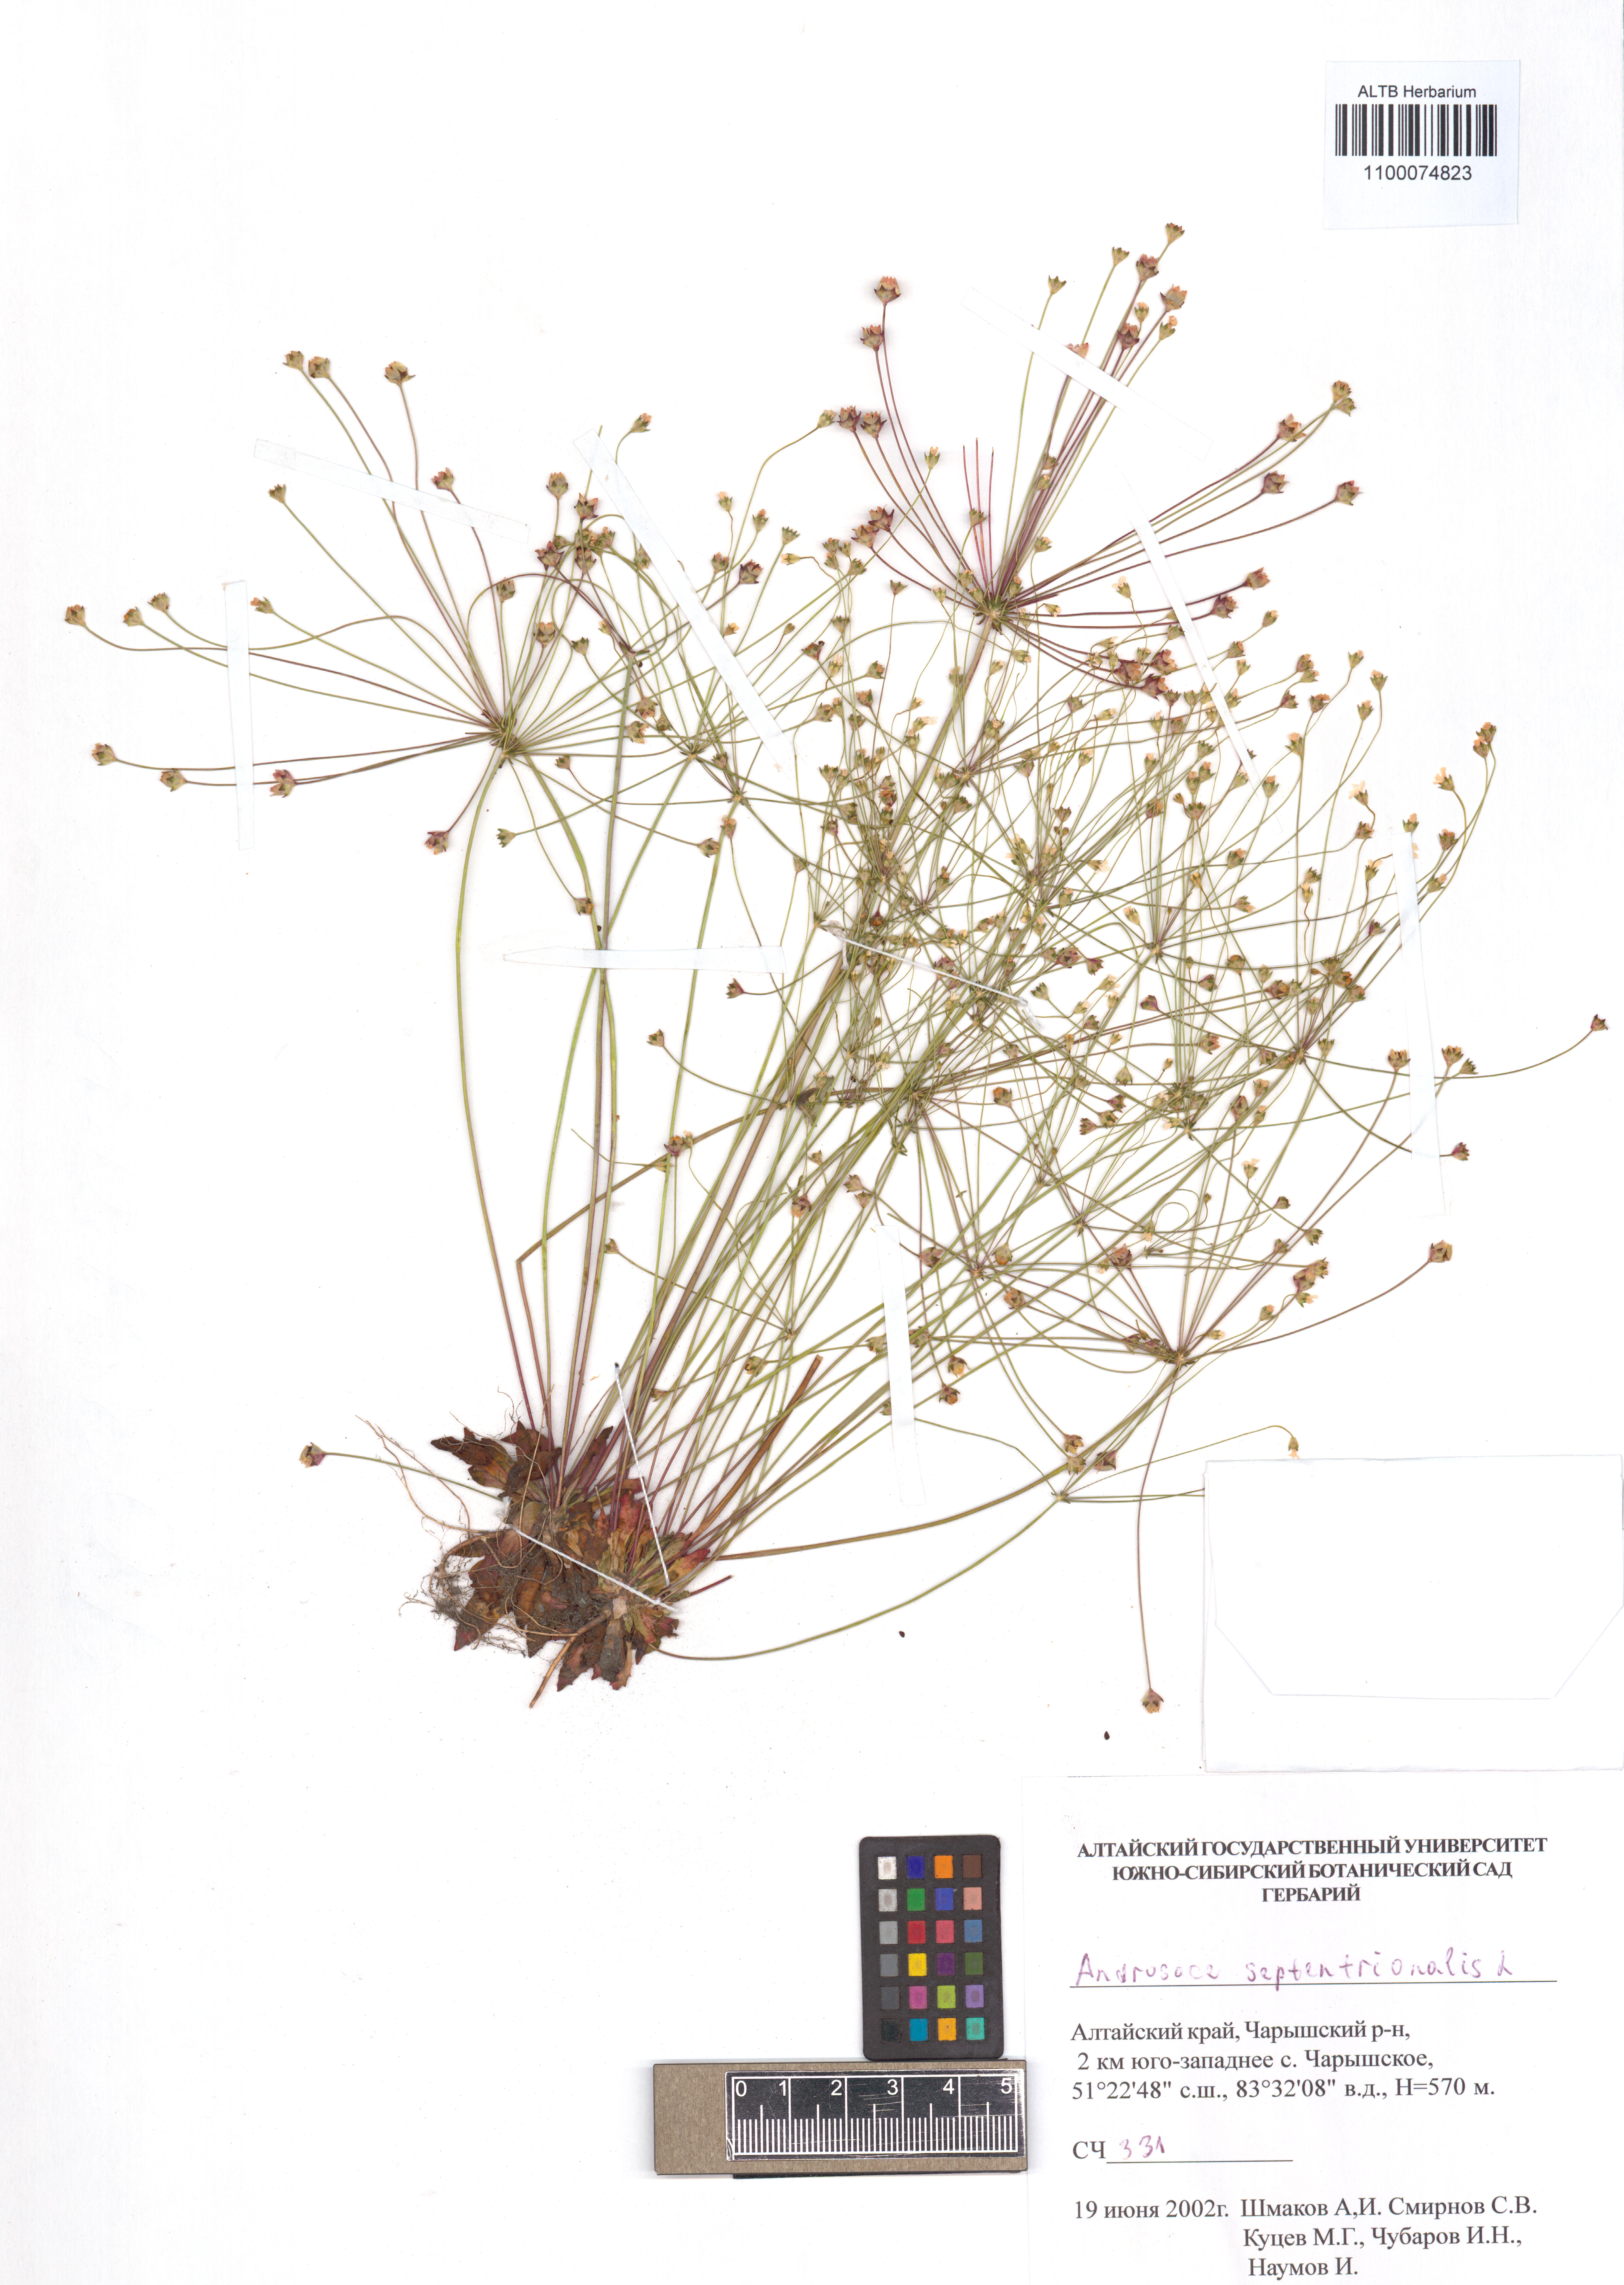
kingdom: Plantae
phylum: Tracheophyta
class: Magnoliopsida
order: Ericales
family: Primulaceae
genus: Androsace
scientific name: Androsace septentrionalis
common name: Hairy northern fairy-candelabra
